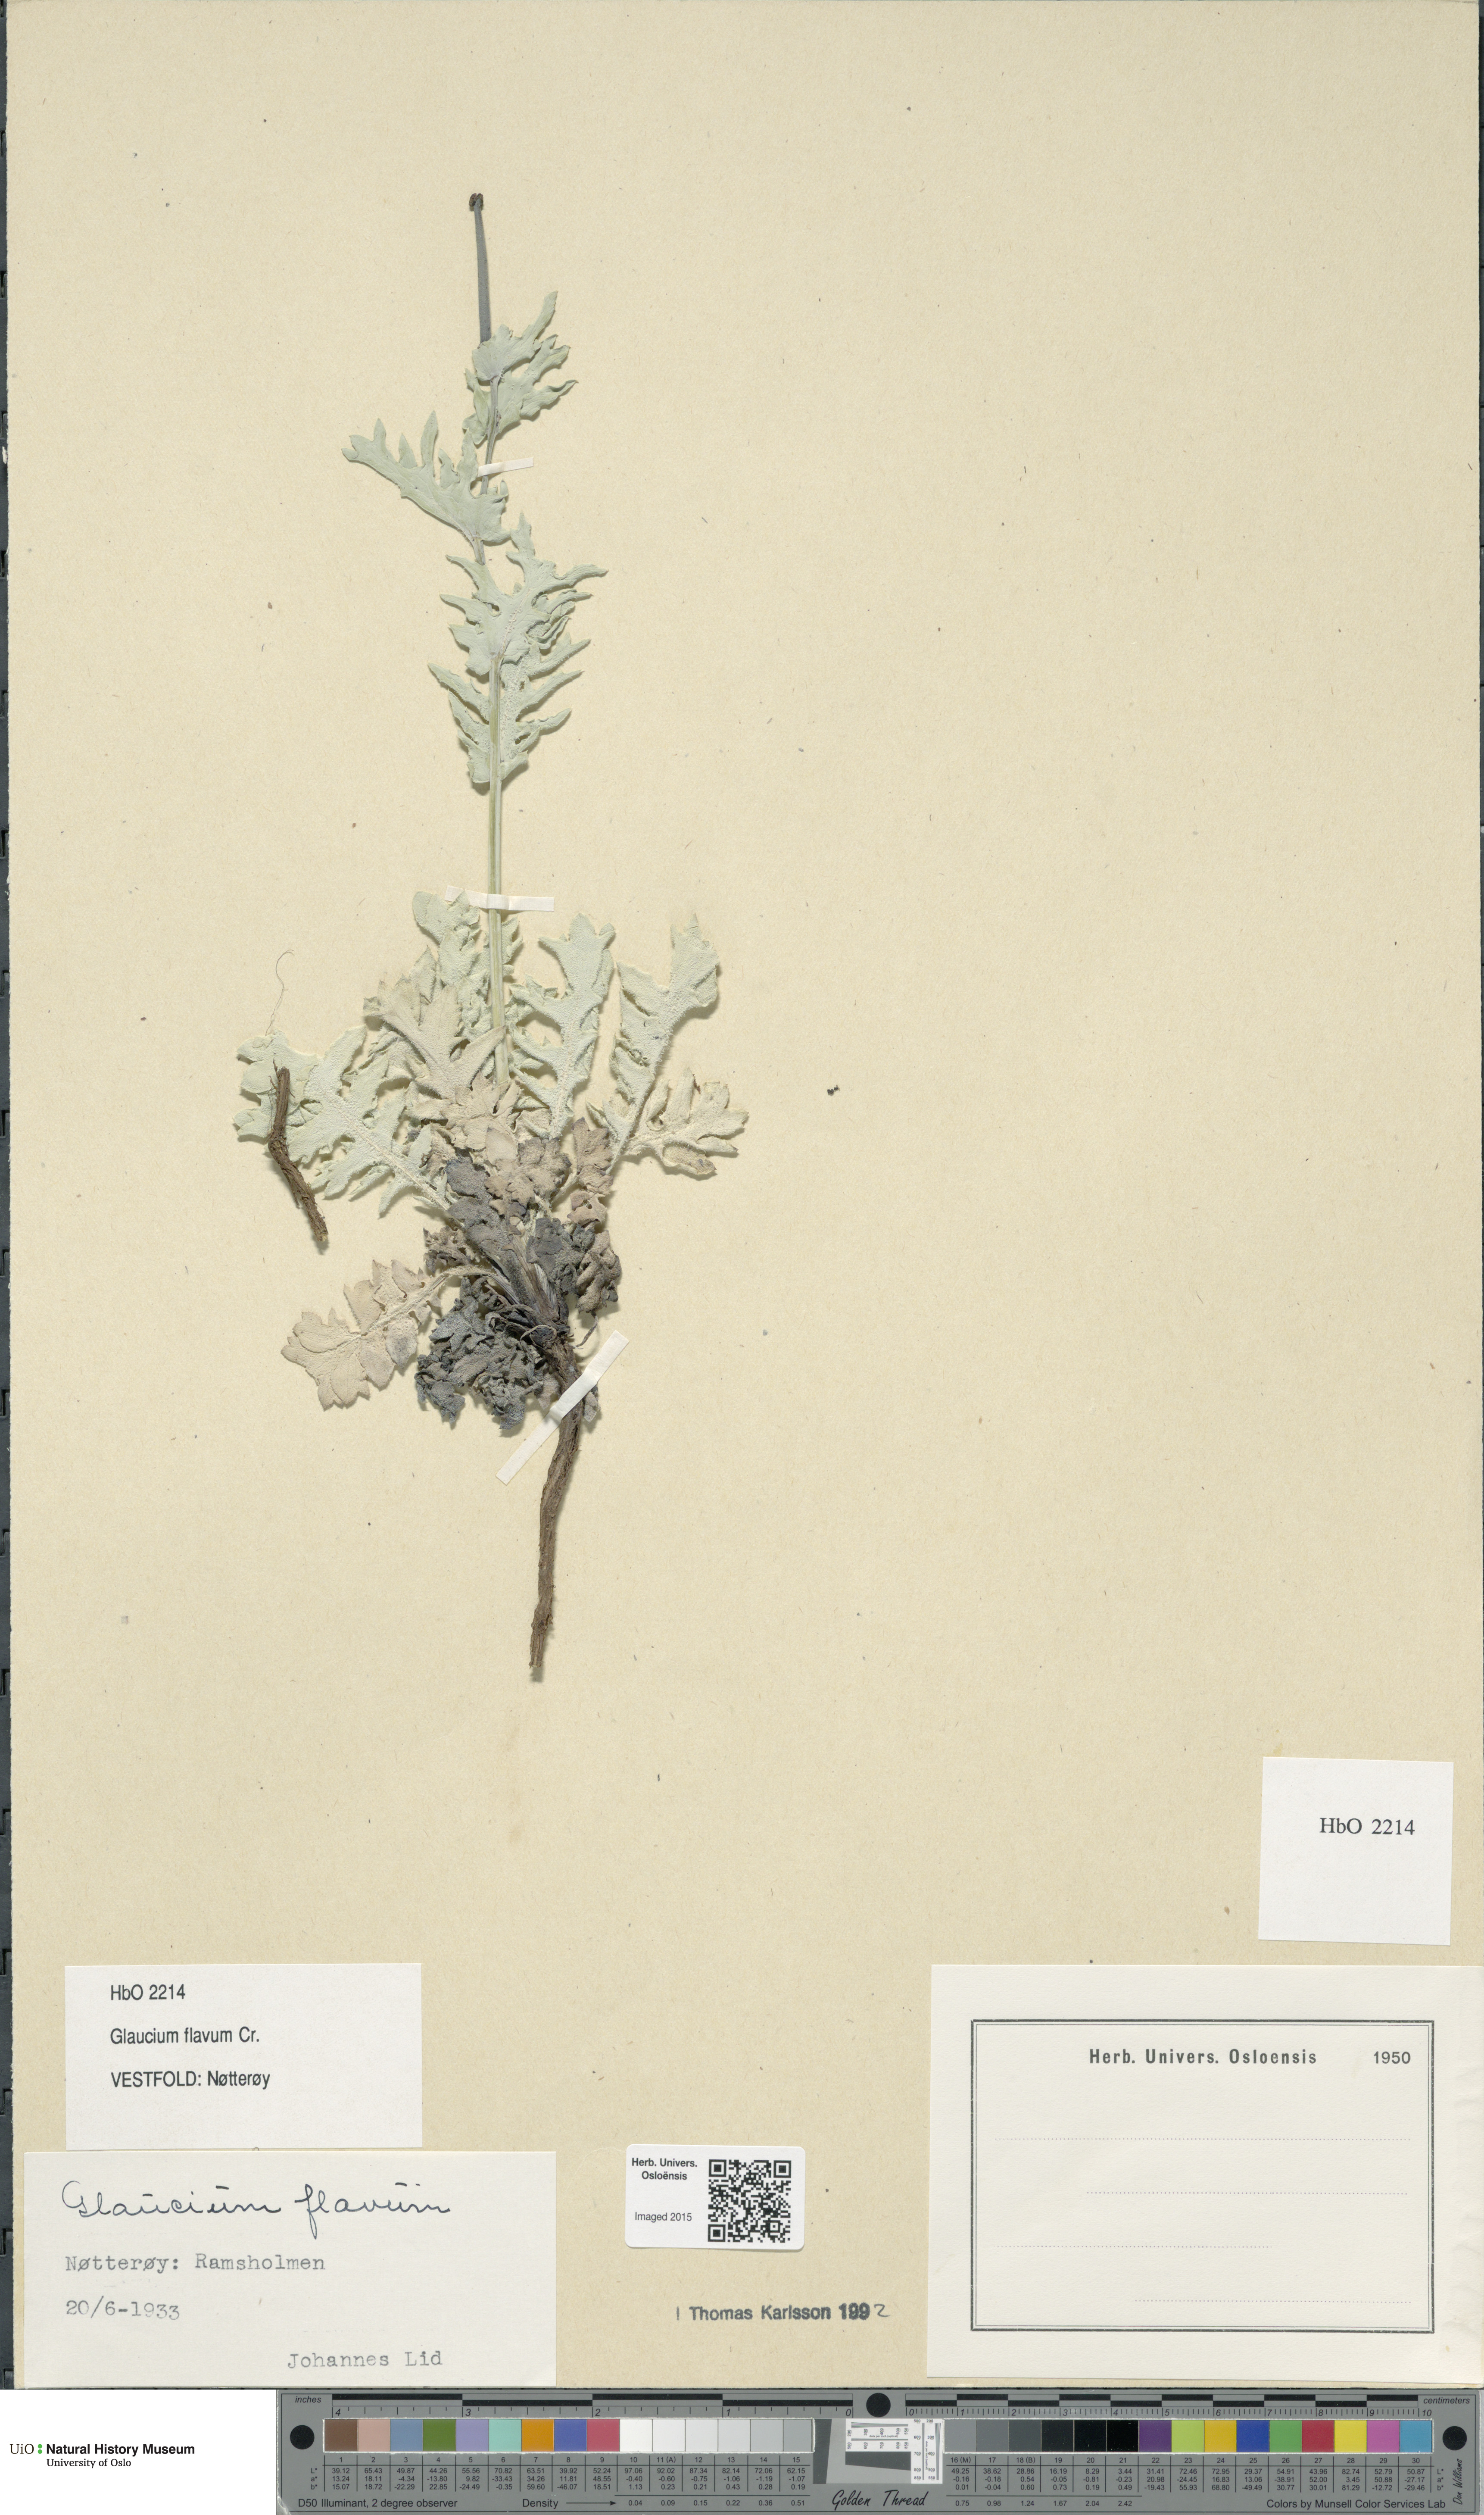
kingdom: Plantae
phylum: Tracheophyta
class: Magnoliopsida
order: Ranunculales
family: Papaveraceae
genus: Glaucium
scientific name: Glaucium flavum
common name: Yellow horned-poppy
